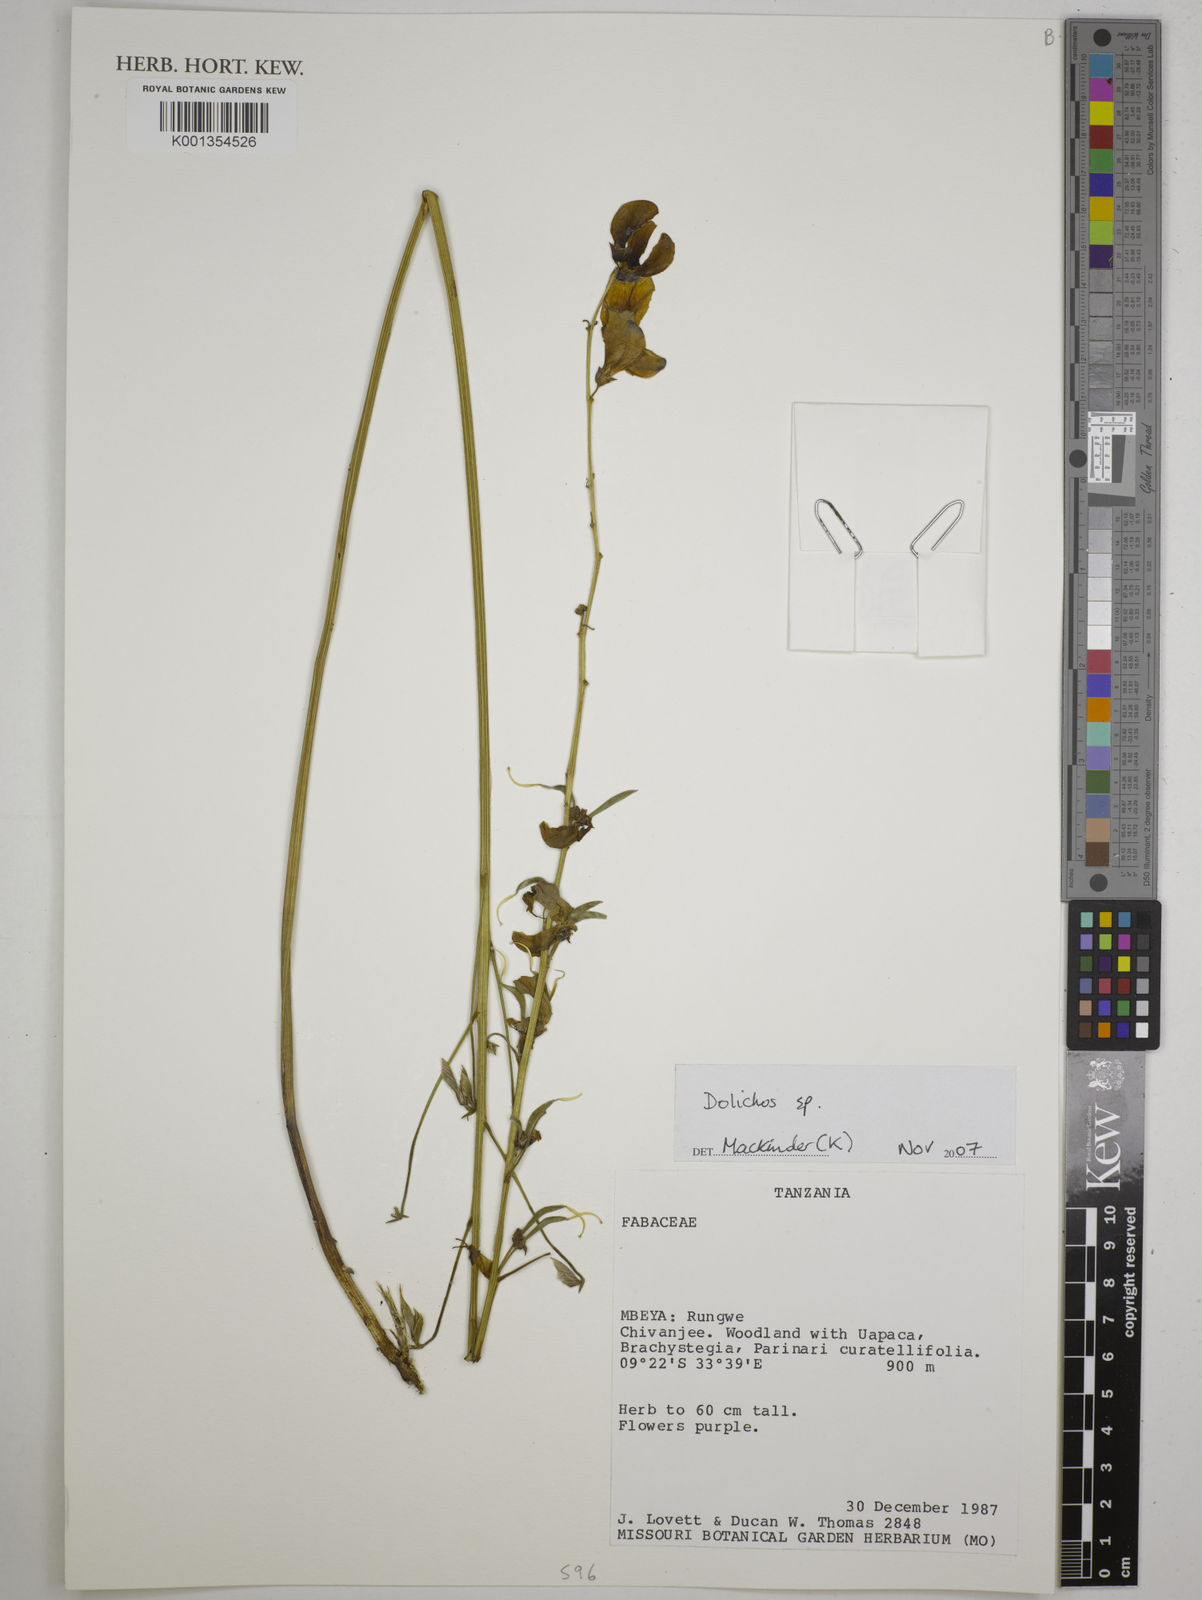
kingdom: Plantae
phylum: Tracheophyta
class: Magnoliopsida
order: Fabales
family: Fabaceae
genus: Dolichos
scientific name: Dolichos
